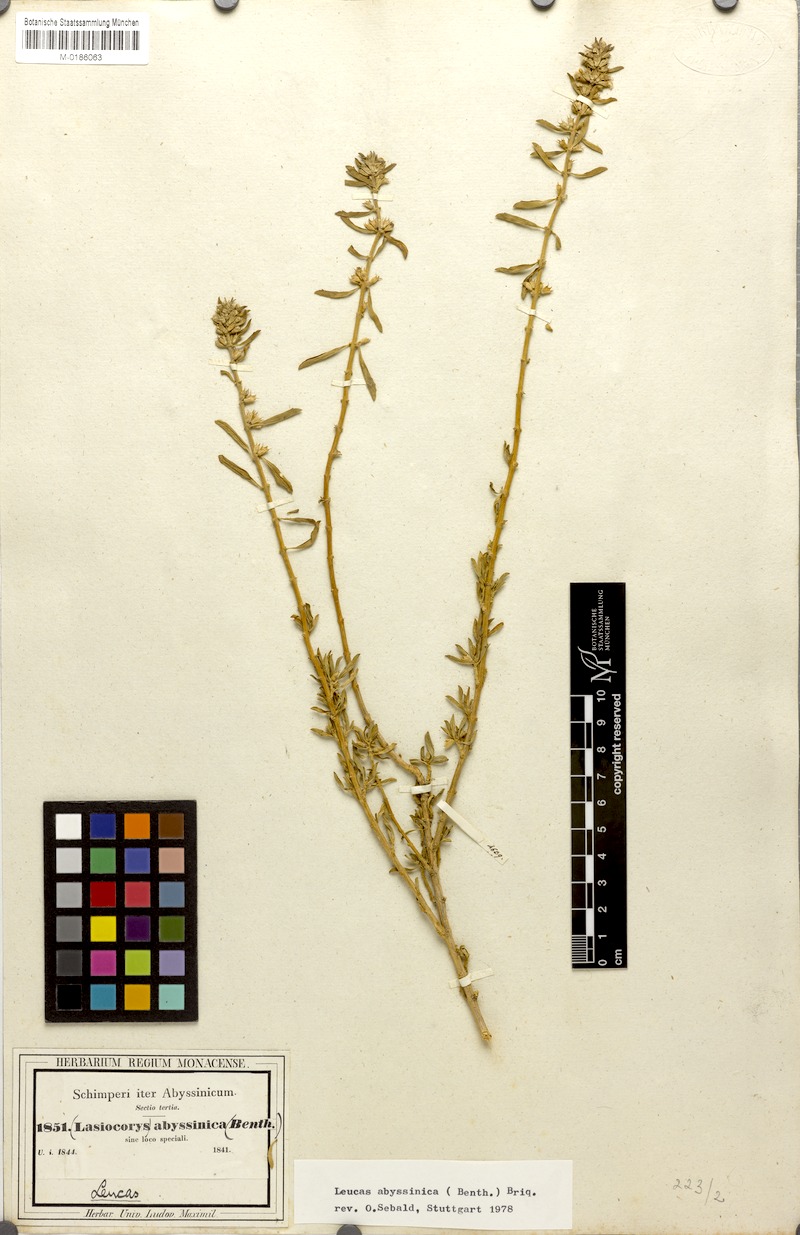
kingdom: Plantae
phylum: Tracheophyta
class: Magnoliopsida
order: Lamiales
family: Lamiaceae
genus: Leucas
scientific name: Leucas abyssinica
